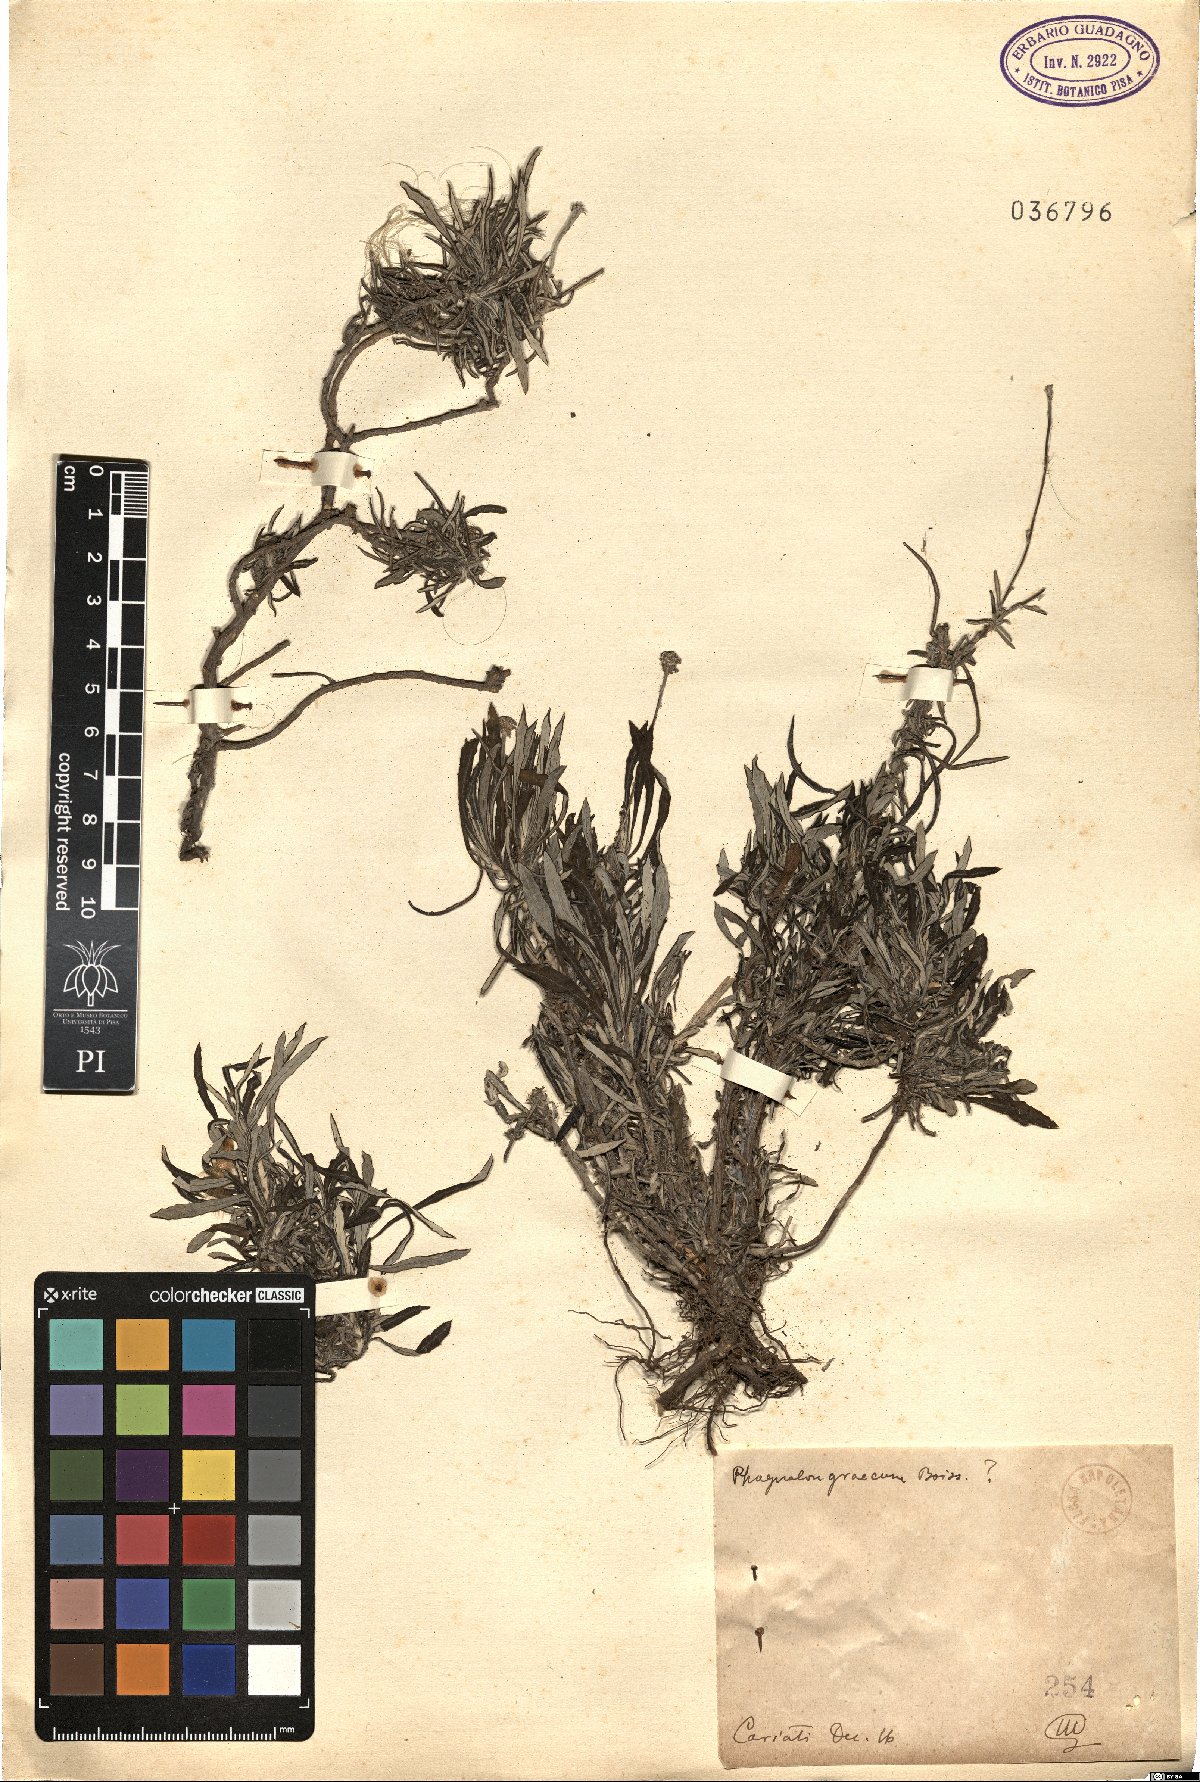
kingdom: Plantae
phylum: Tracheophyta
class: Magnoliopsida
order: Asterales
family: Asteraceae
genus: Phagnalon
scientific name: Phagnalon graecum
